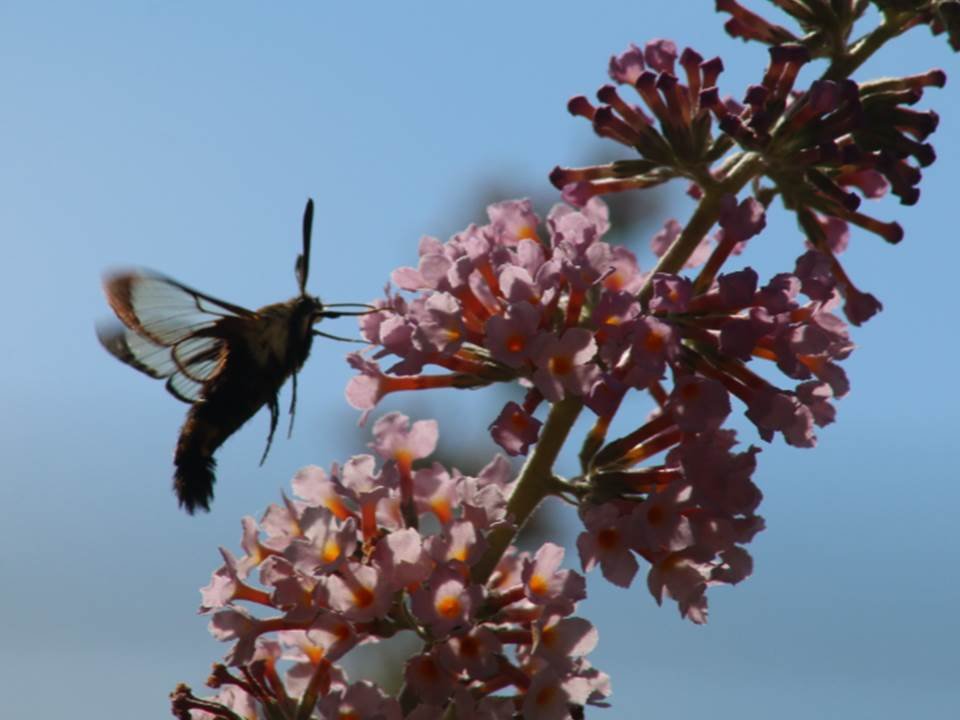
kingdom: Animalia
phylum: Arthropoda
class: Insecta
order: Lepidoptera
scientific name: Lepidoptera
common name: Butterflies
